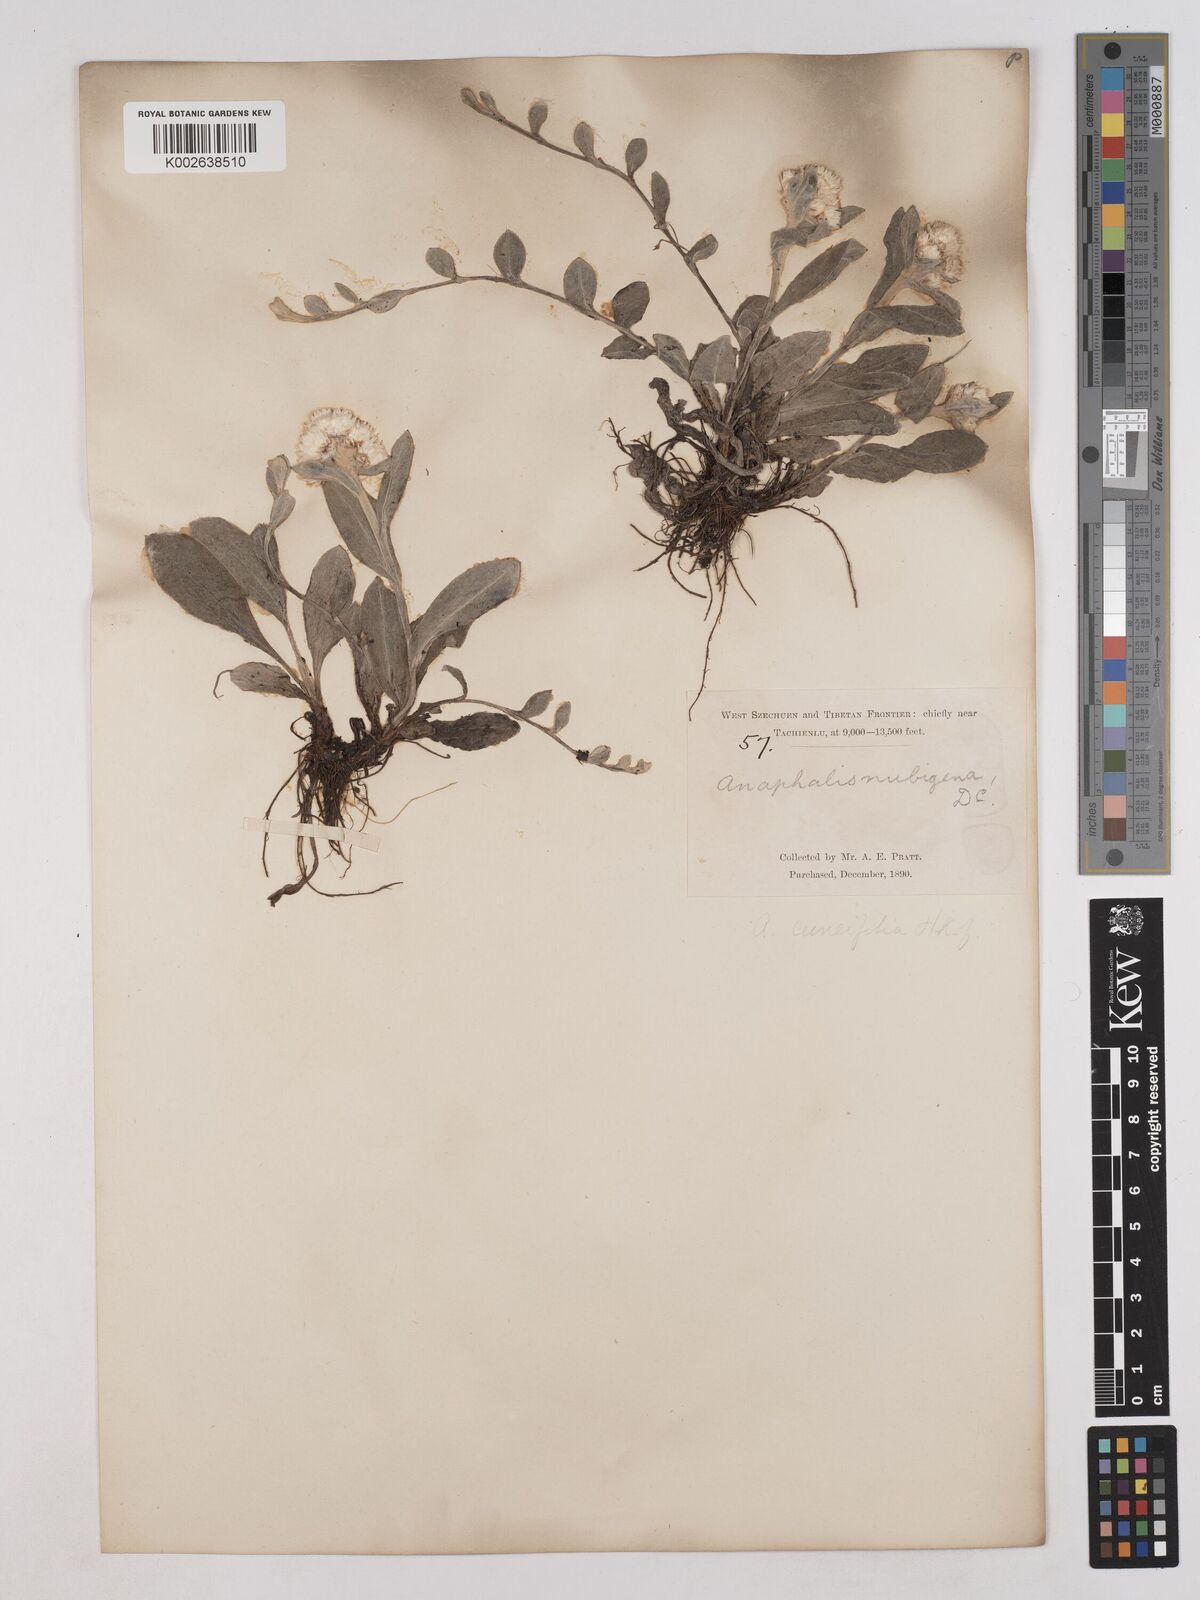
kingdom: Plantae
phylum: Tracheophyta
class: Magnoliopsida
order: Asterales
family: Asteraceae
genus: Anaphalis
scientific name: Anaphalis nepalensis
